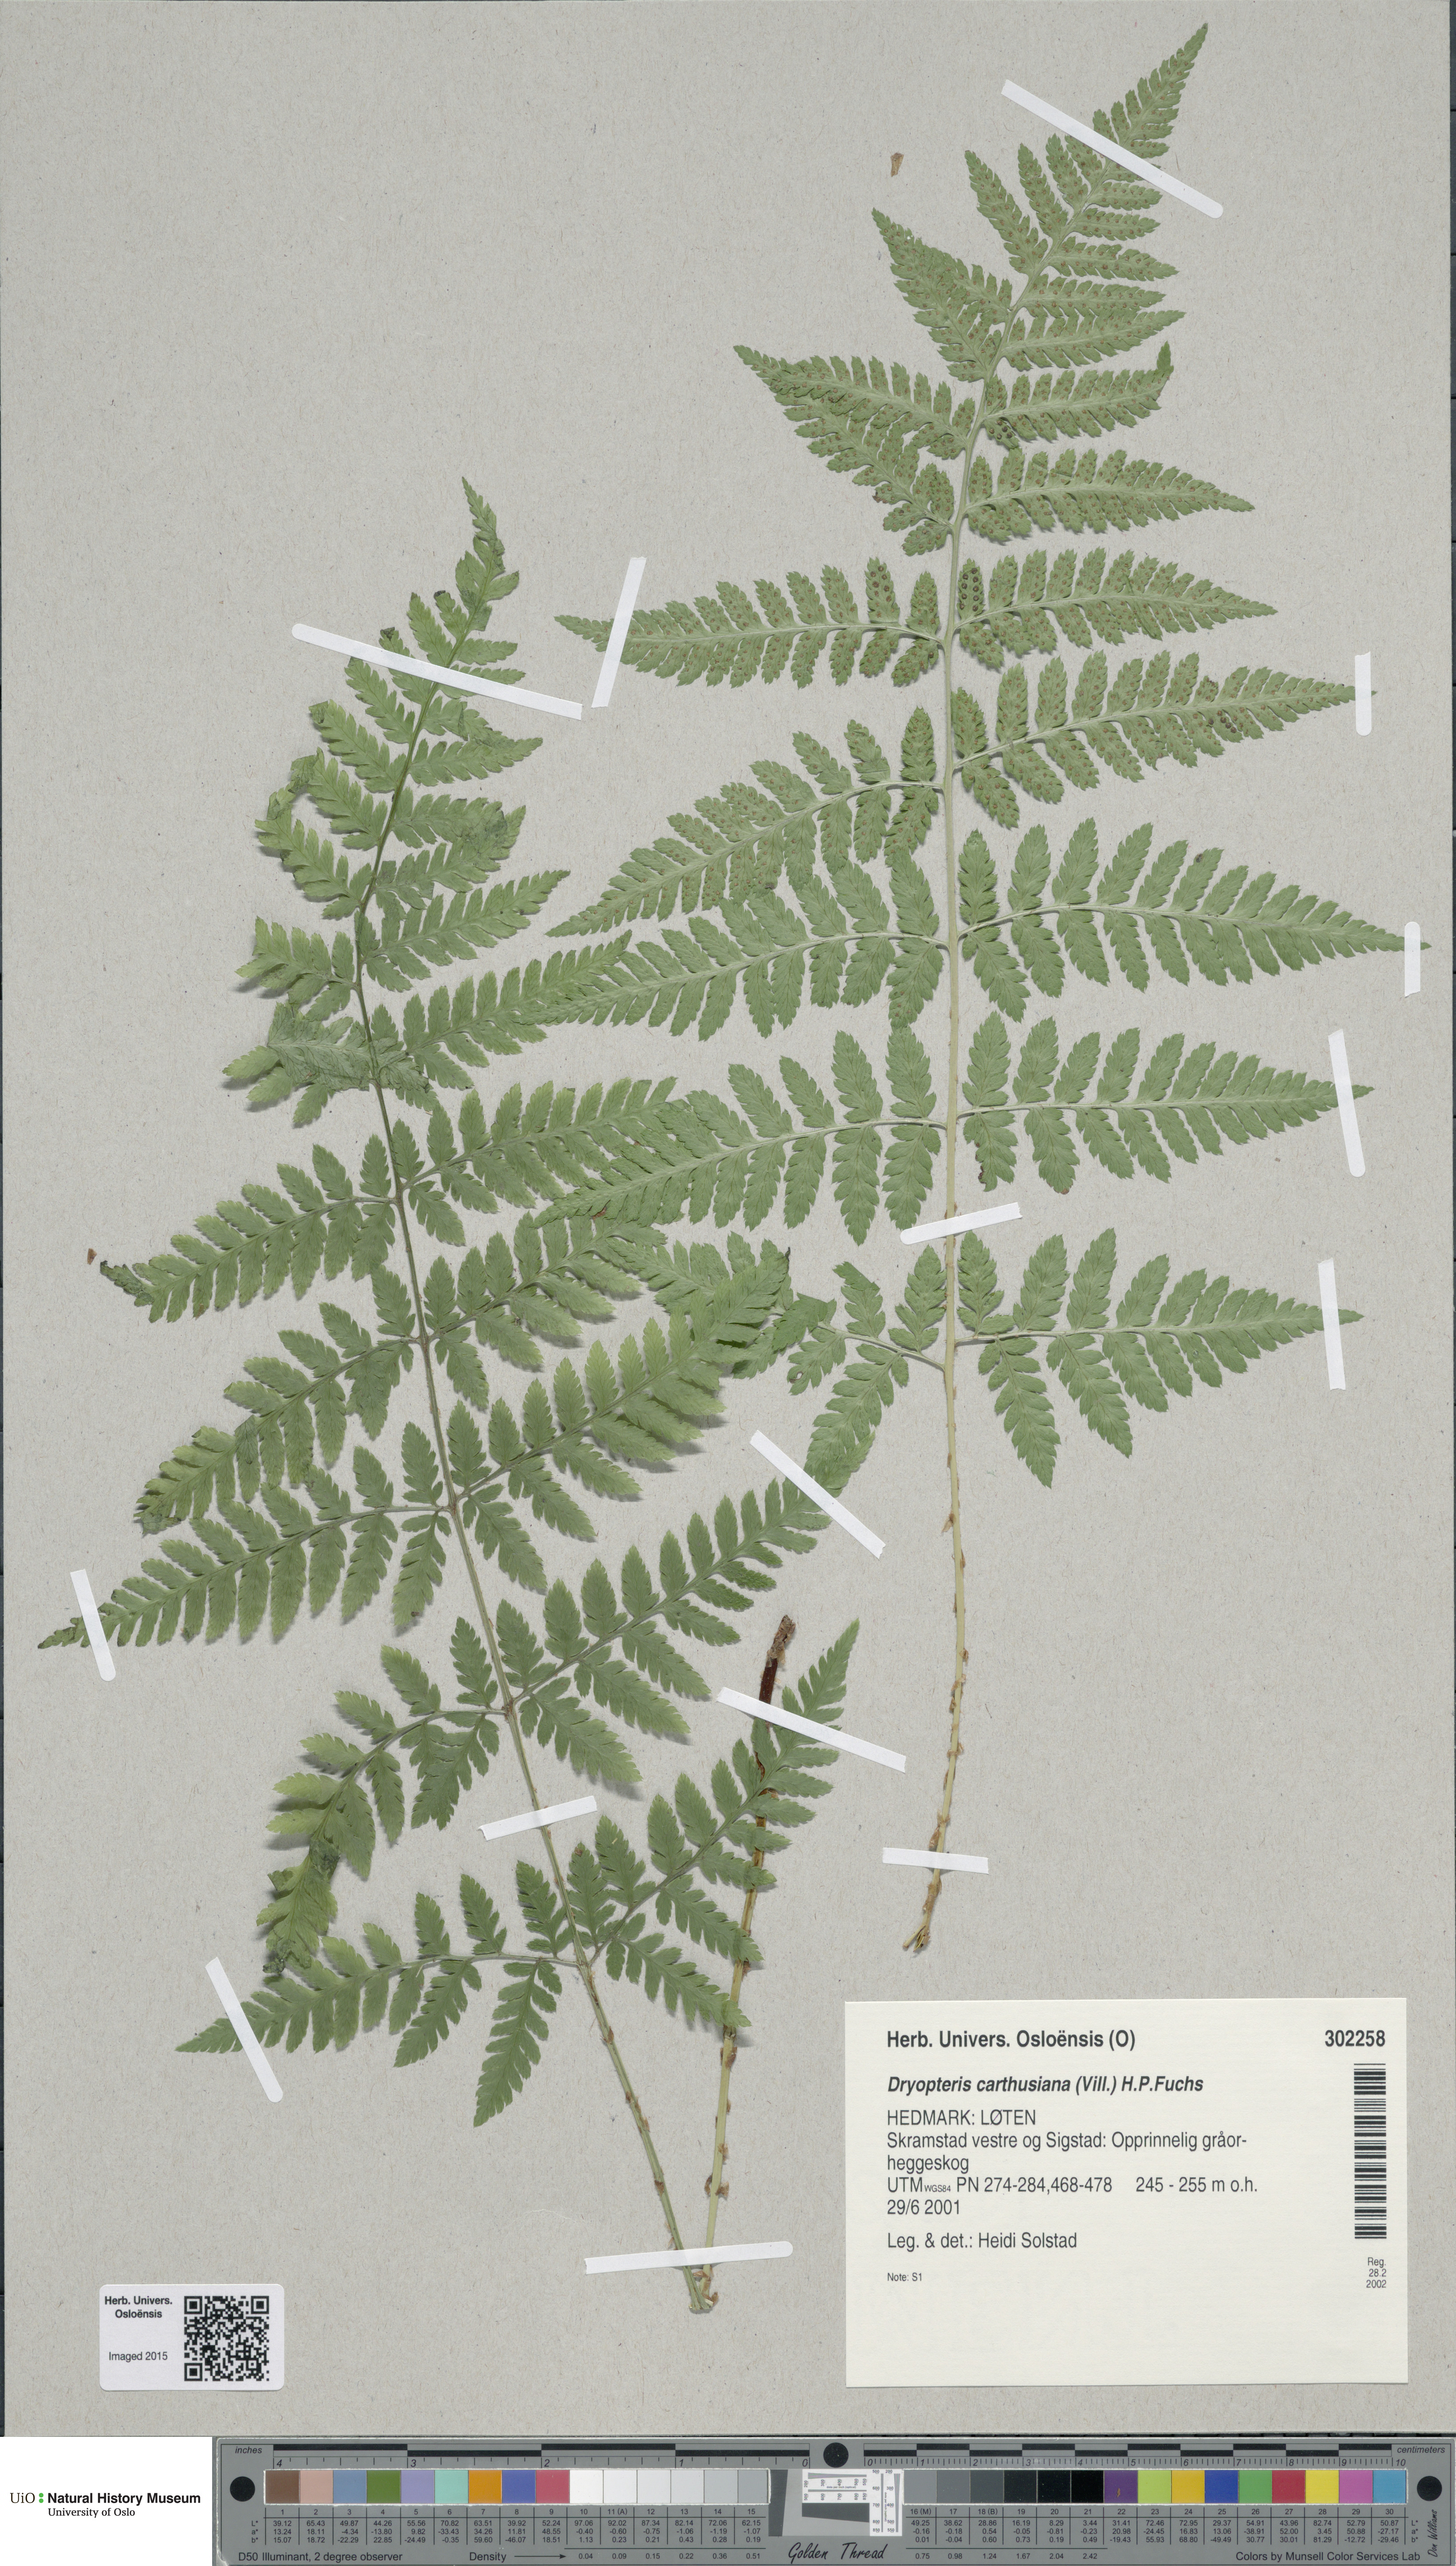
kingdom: Plantae
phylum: Tracheophyta
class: Polypodiopsida
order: Polypodiales
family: Dryopteridaceae
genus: Dryopteris
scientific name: Dryopteris carthusiana
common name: Narrow buckler-fern
